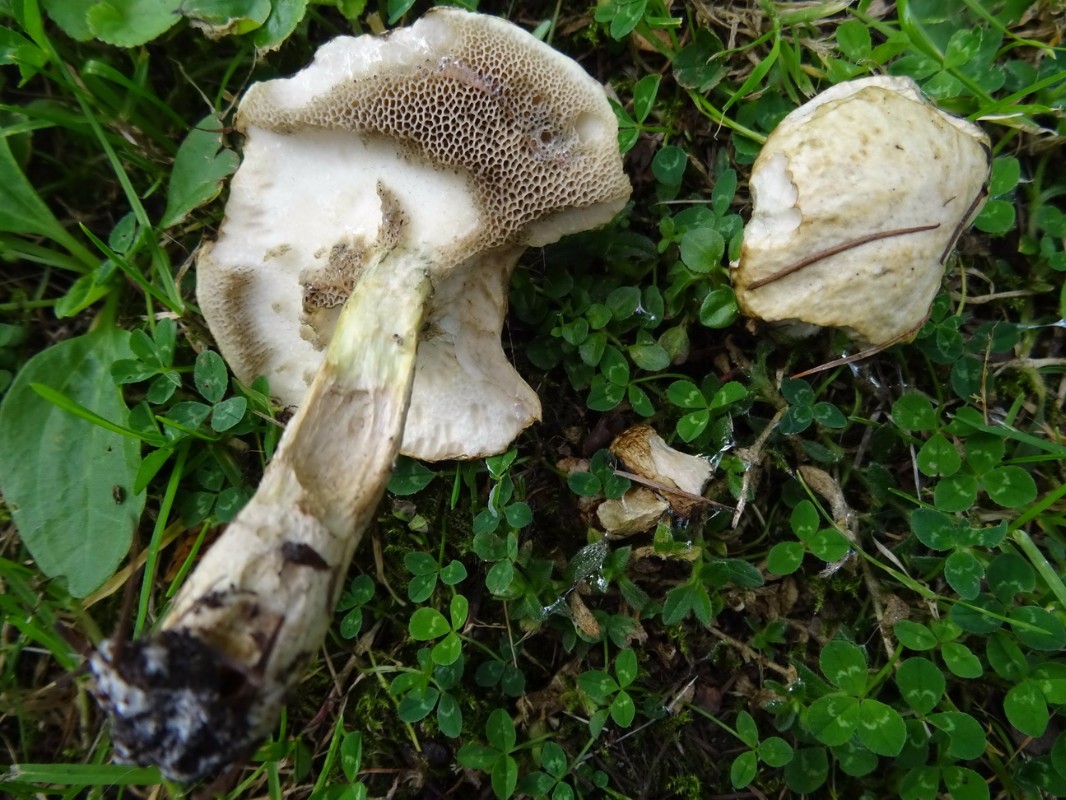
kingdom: Fungi
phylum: Basidiomycota
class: Agaricomycetes
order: Boletales
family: Suillaceae
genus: Suillus
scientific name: Suillus viscidus
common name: olivengrå slimrørhat
